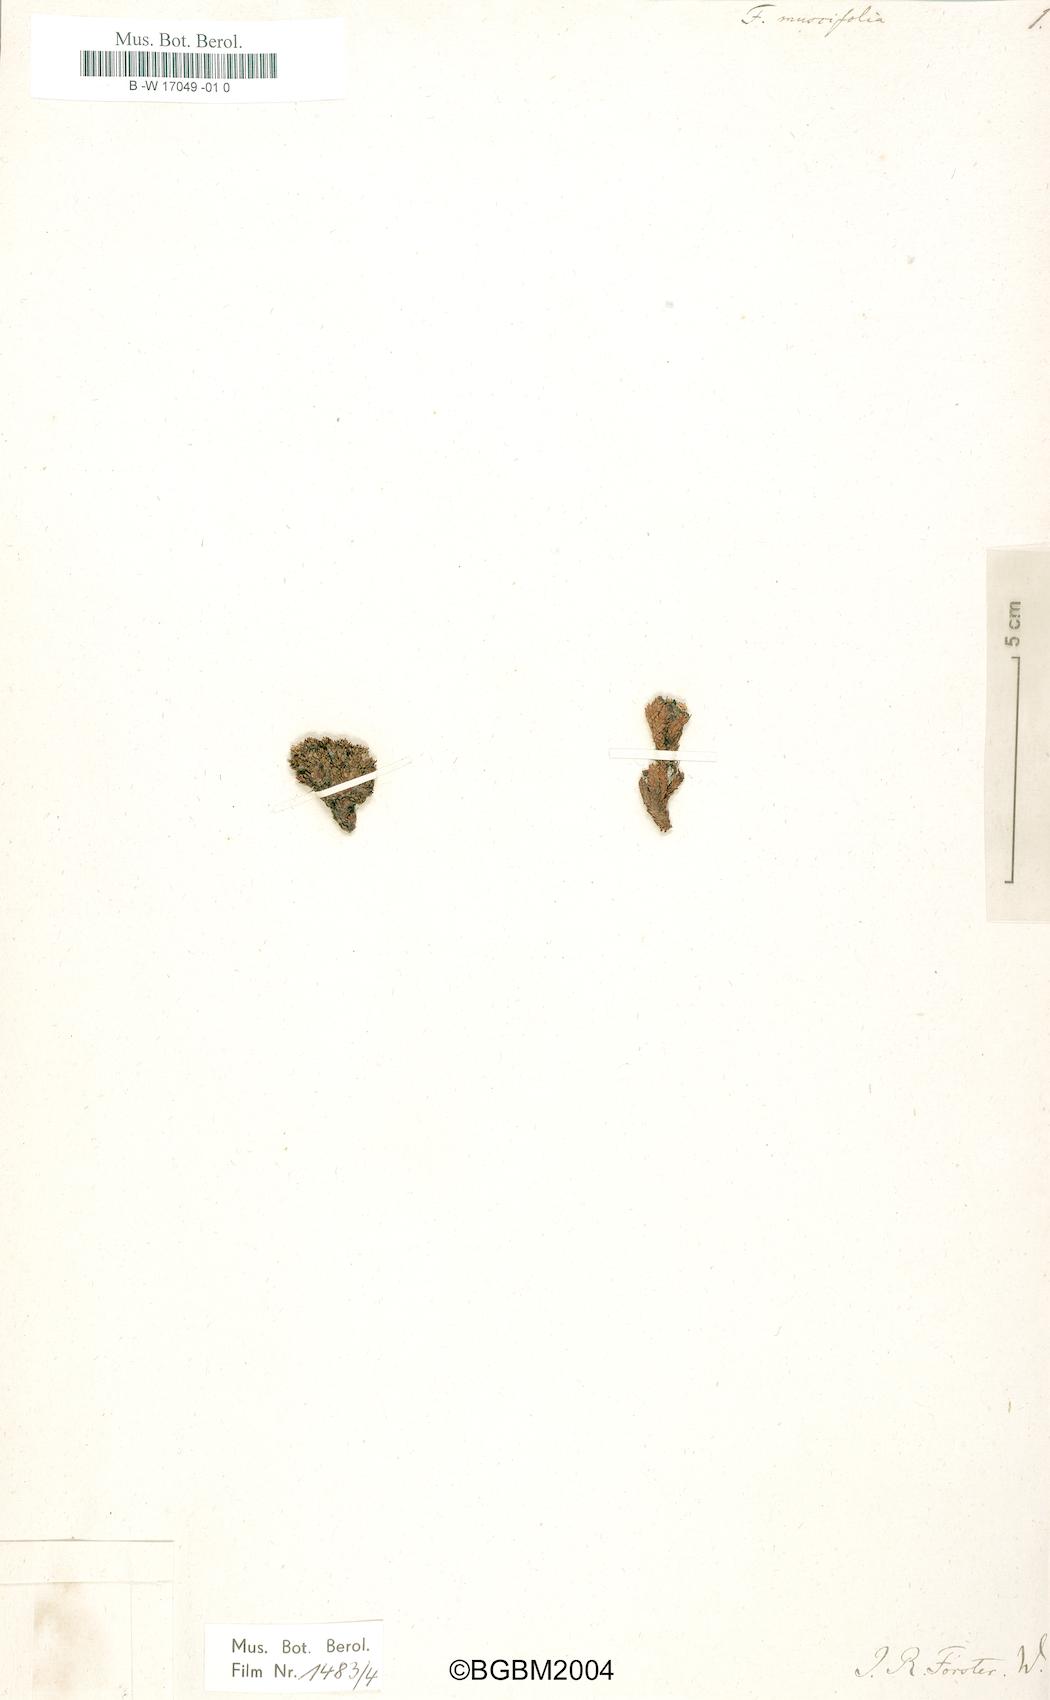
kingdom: Plantae
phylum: Tracheophyta
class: Magnoliopsida
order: Asterales
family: Stylidiaceae
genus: Phyllachne
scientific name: Phyllachne uliginosa
